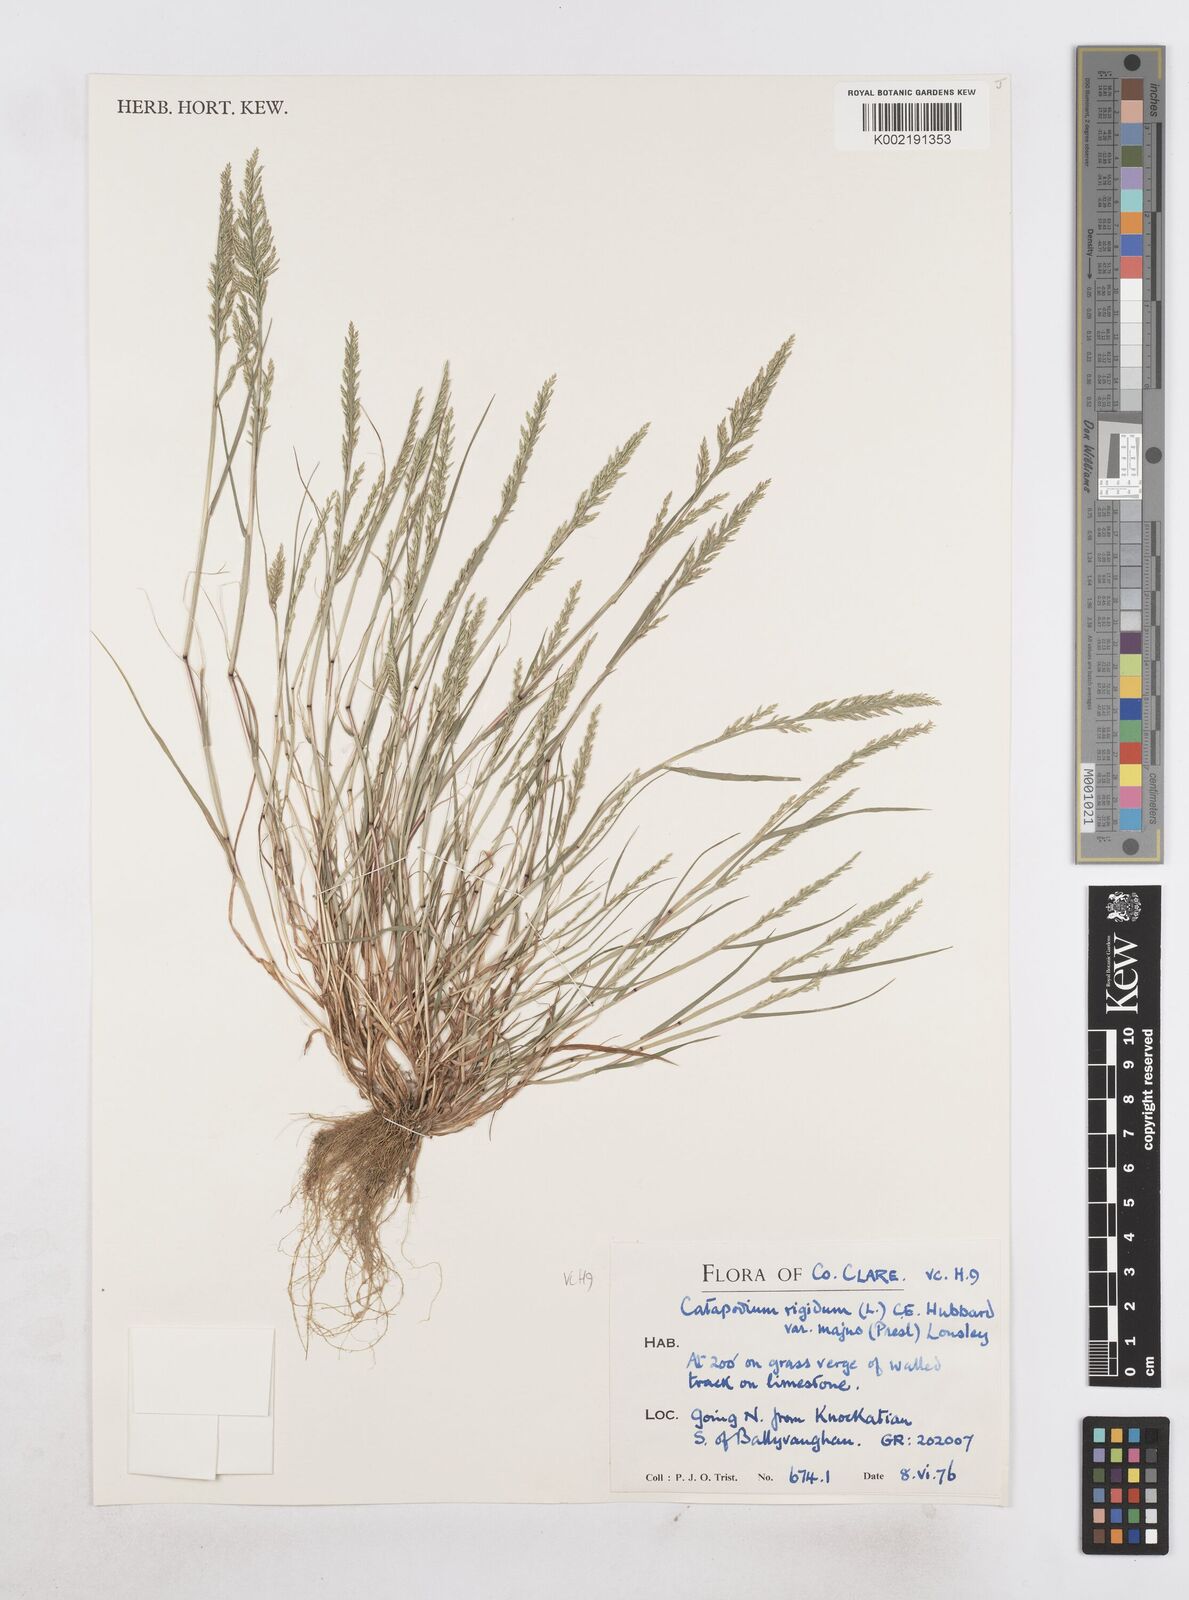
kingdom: Plantae
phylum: Tracheophyta
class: Liliopsida
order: Poales
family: Poaceae
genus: Catapodium
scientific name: Catapodium rigidum
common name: Fern-grass
